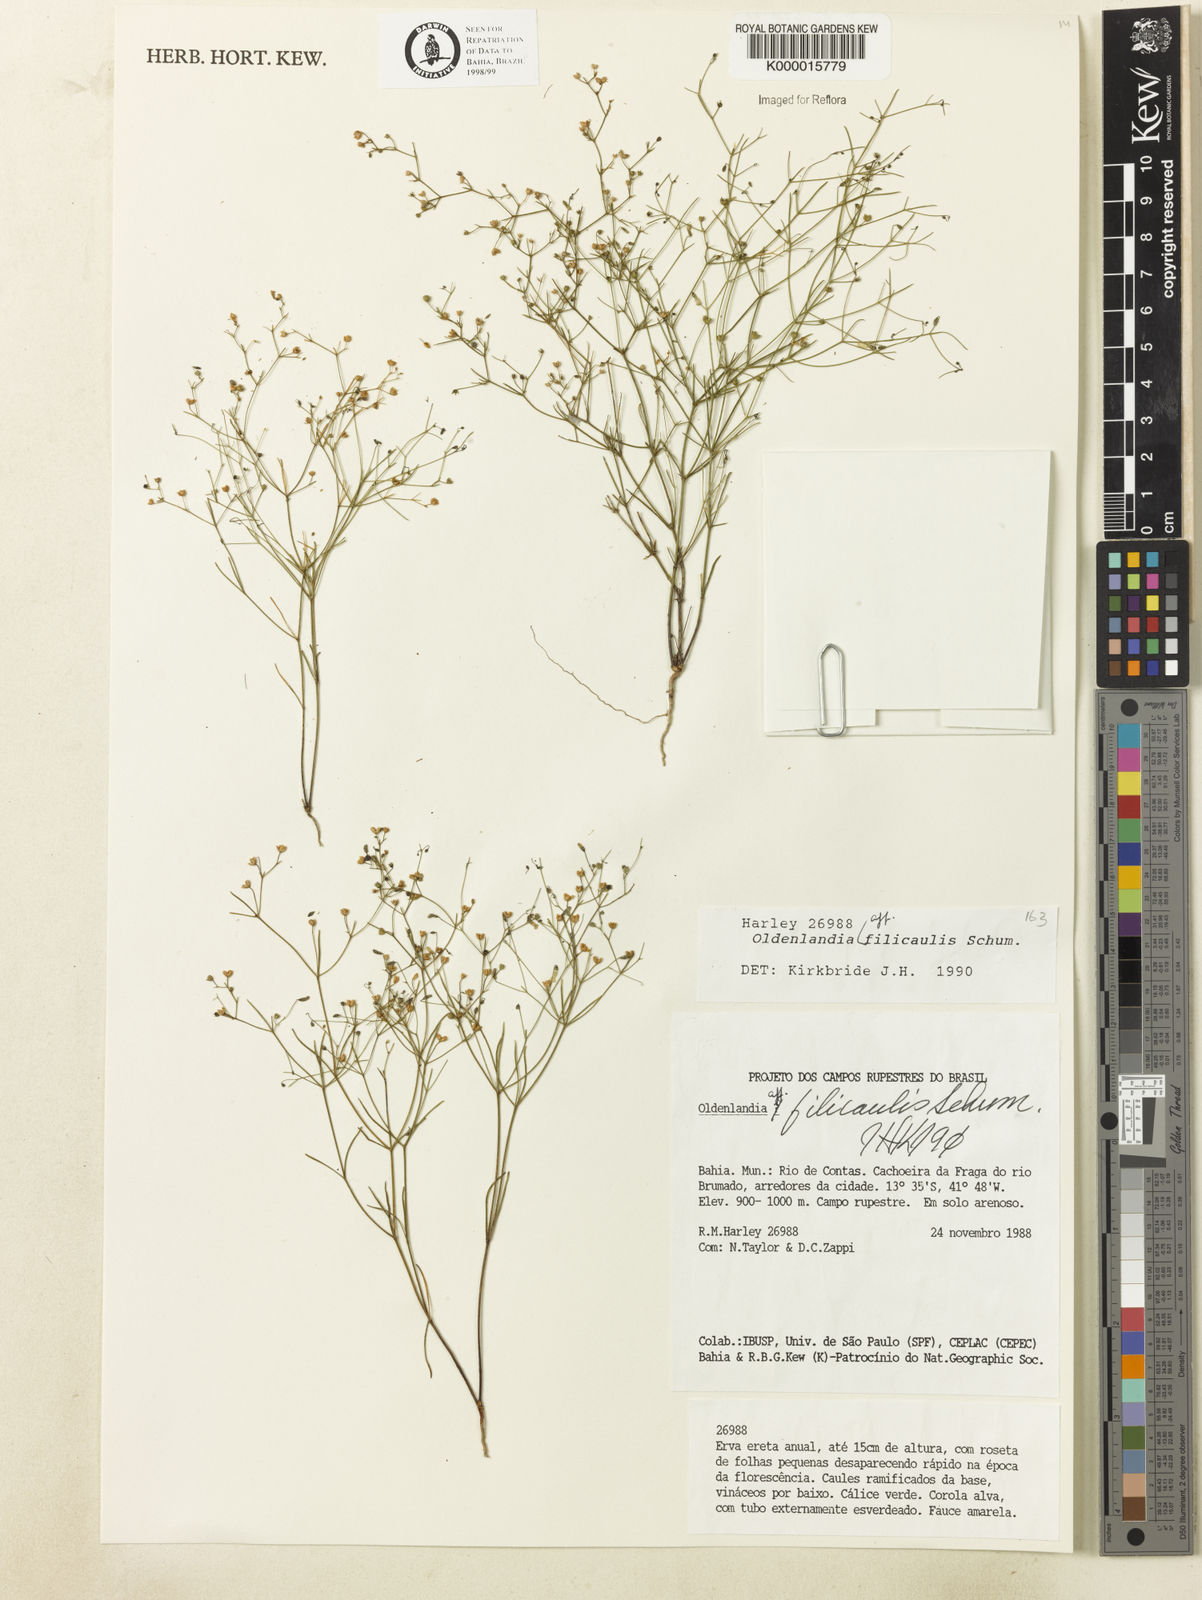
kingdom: Plantae
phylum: Tracheophyta
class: Magnoliopsida
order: Gentianales
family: Rubiaceae
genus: Oldenlandia
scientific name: Oldenlandia filicaulis
